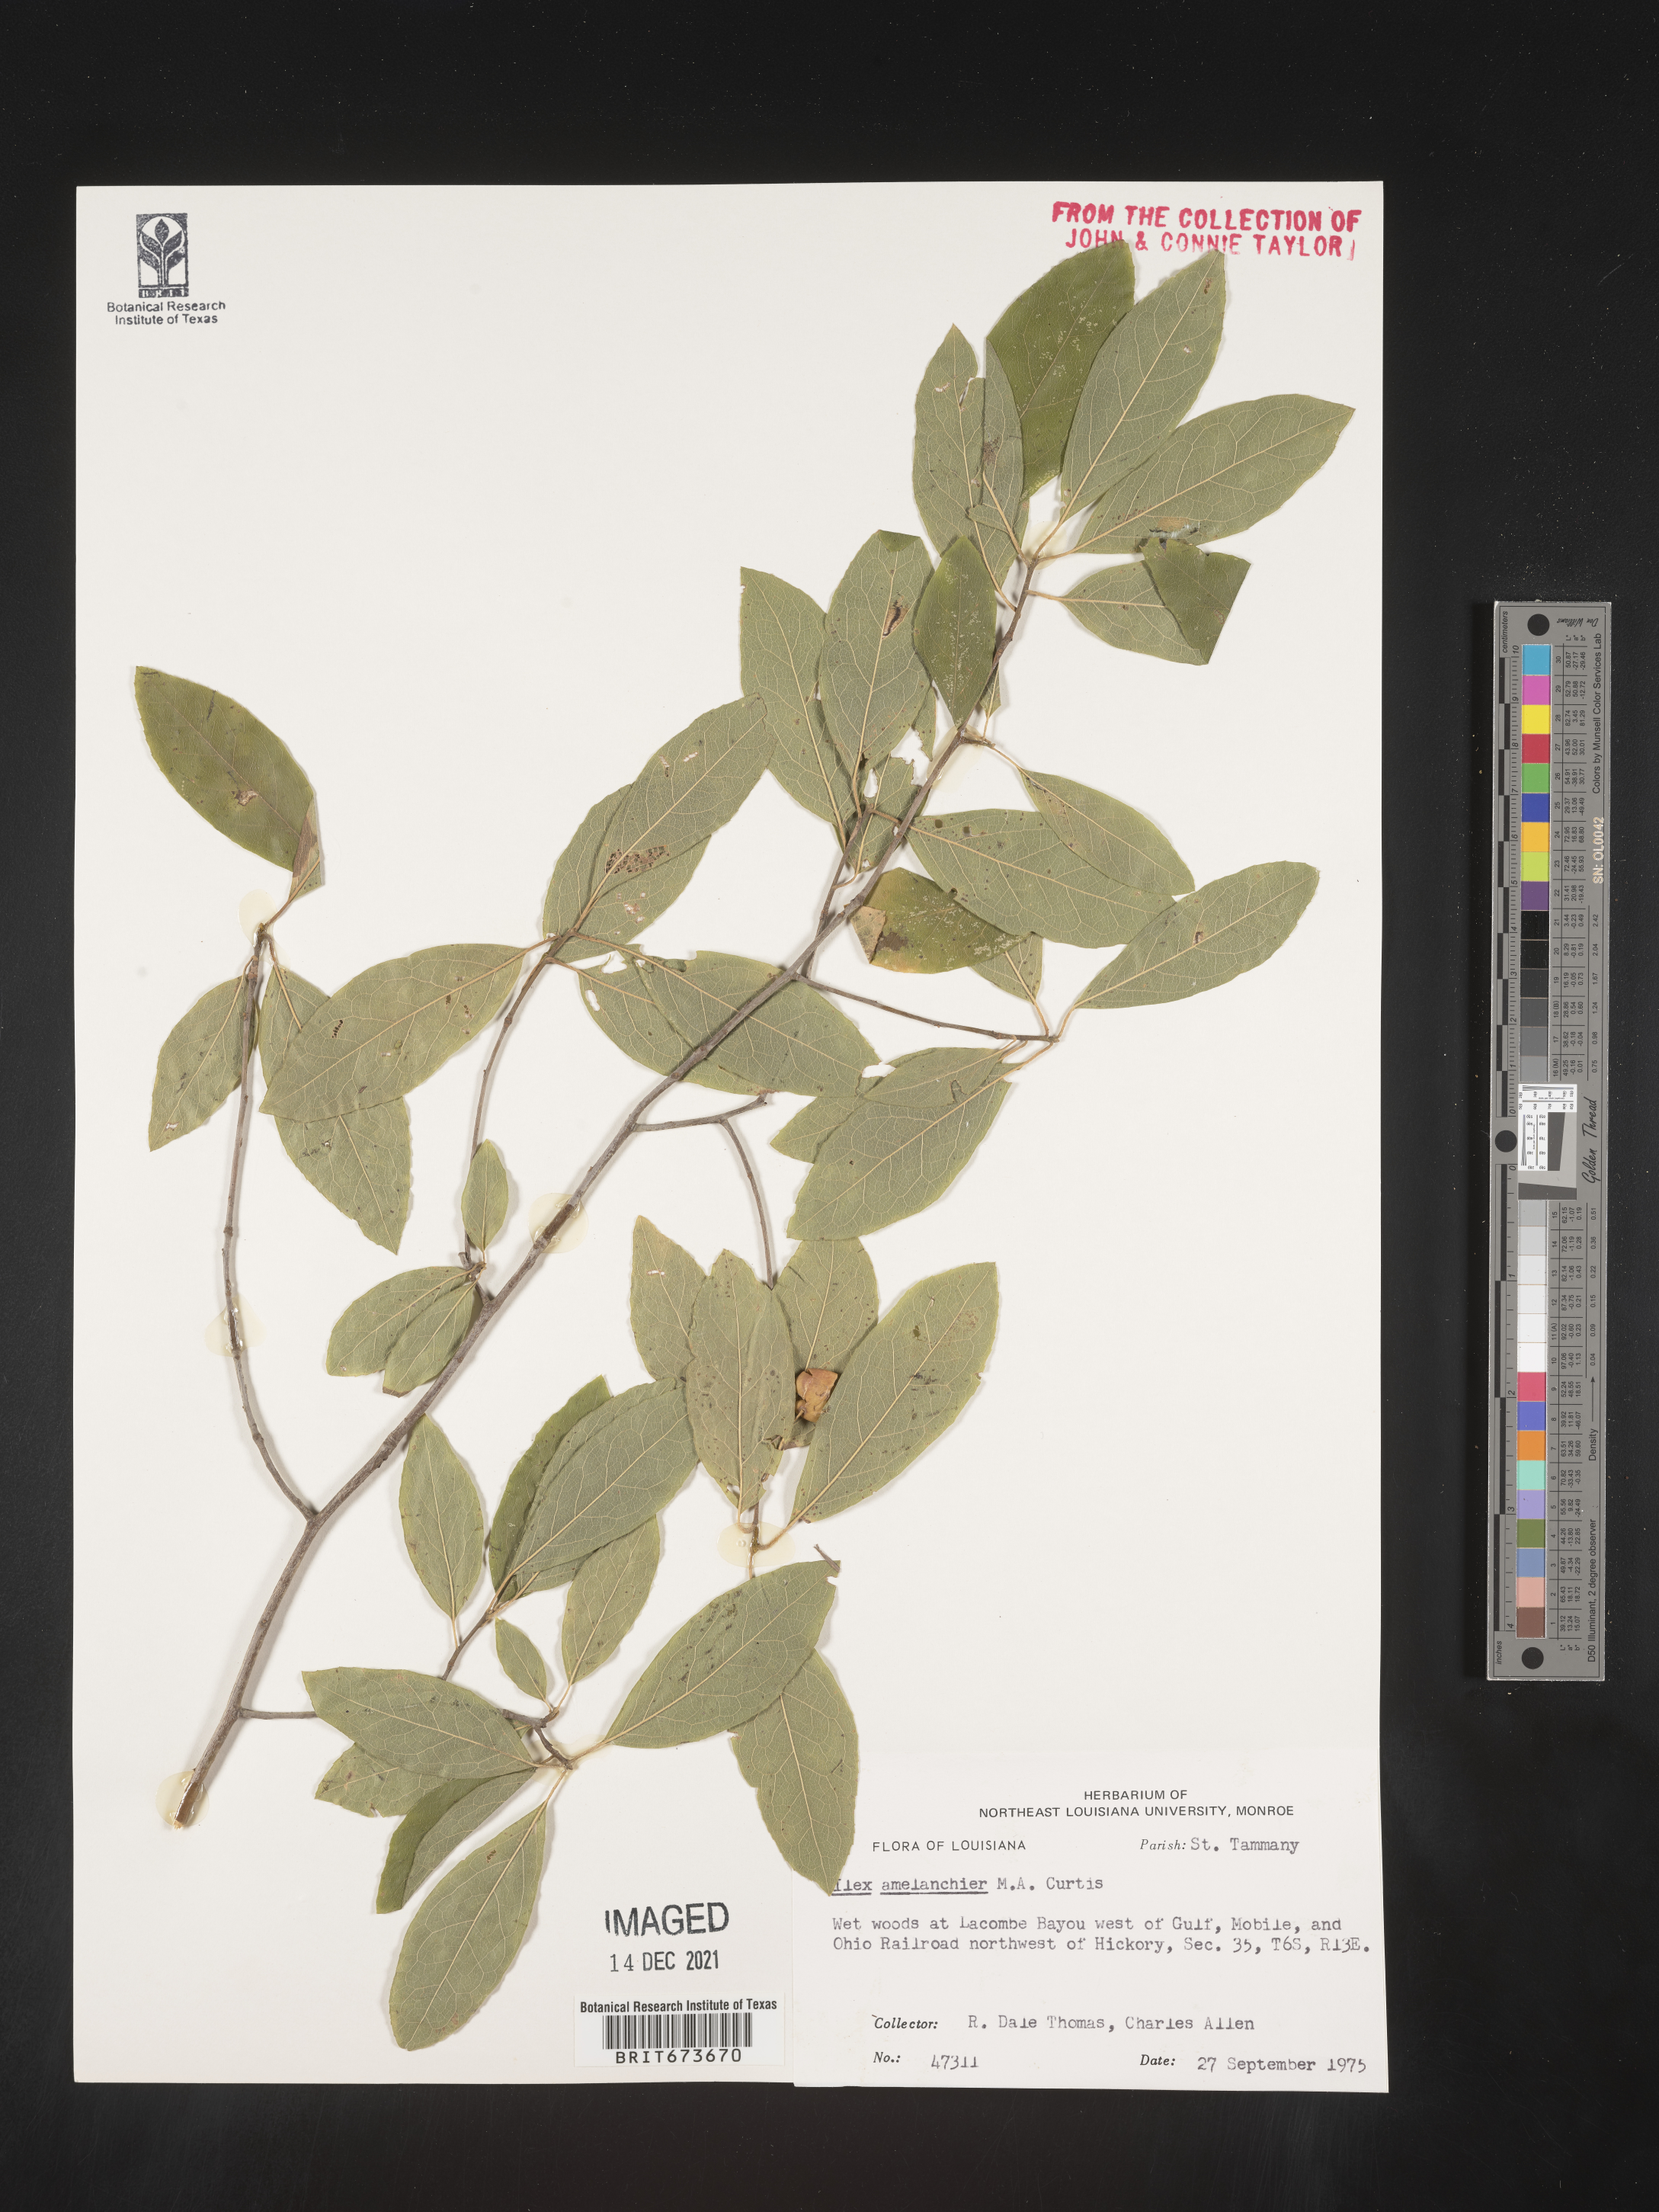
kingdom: Plantae
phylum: Tracheophyta
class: Magnoliopsida
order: Aquifoliales
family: Aquifoliaceae
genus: Ilex
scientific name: Ilex
